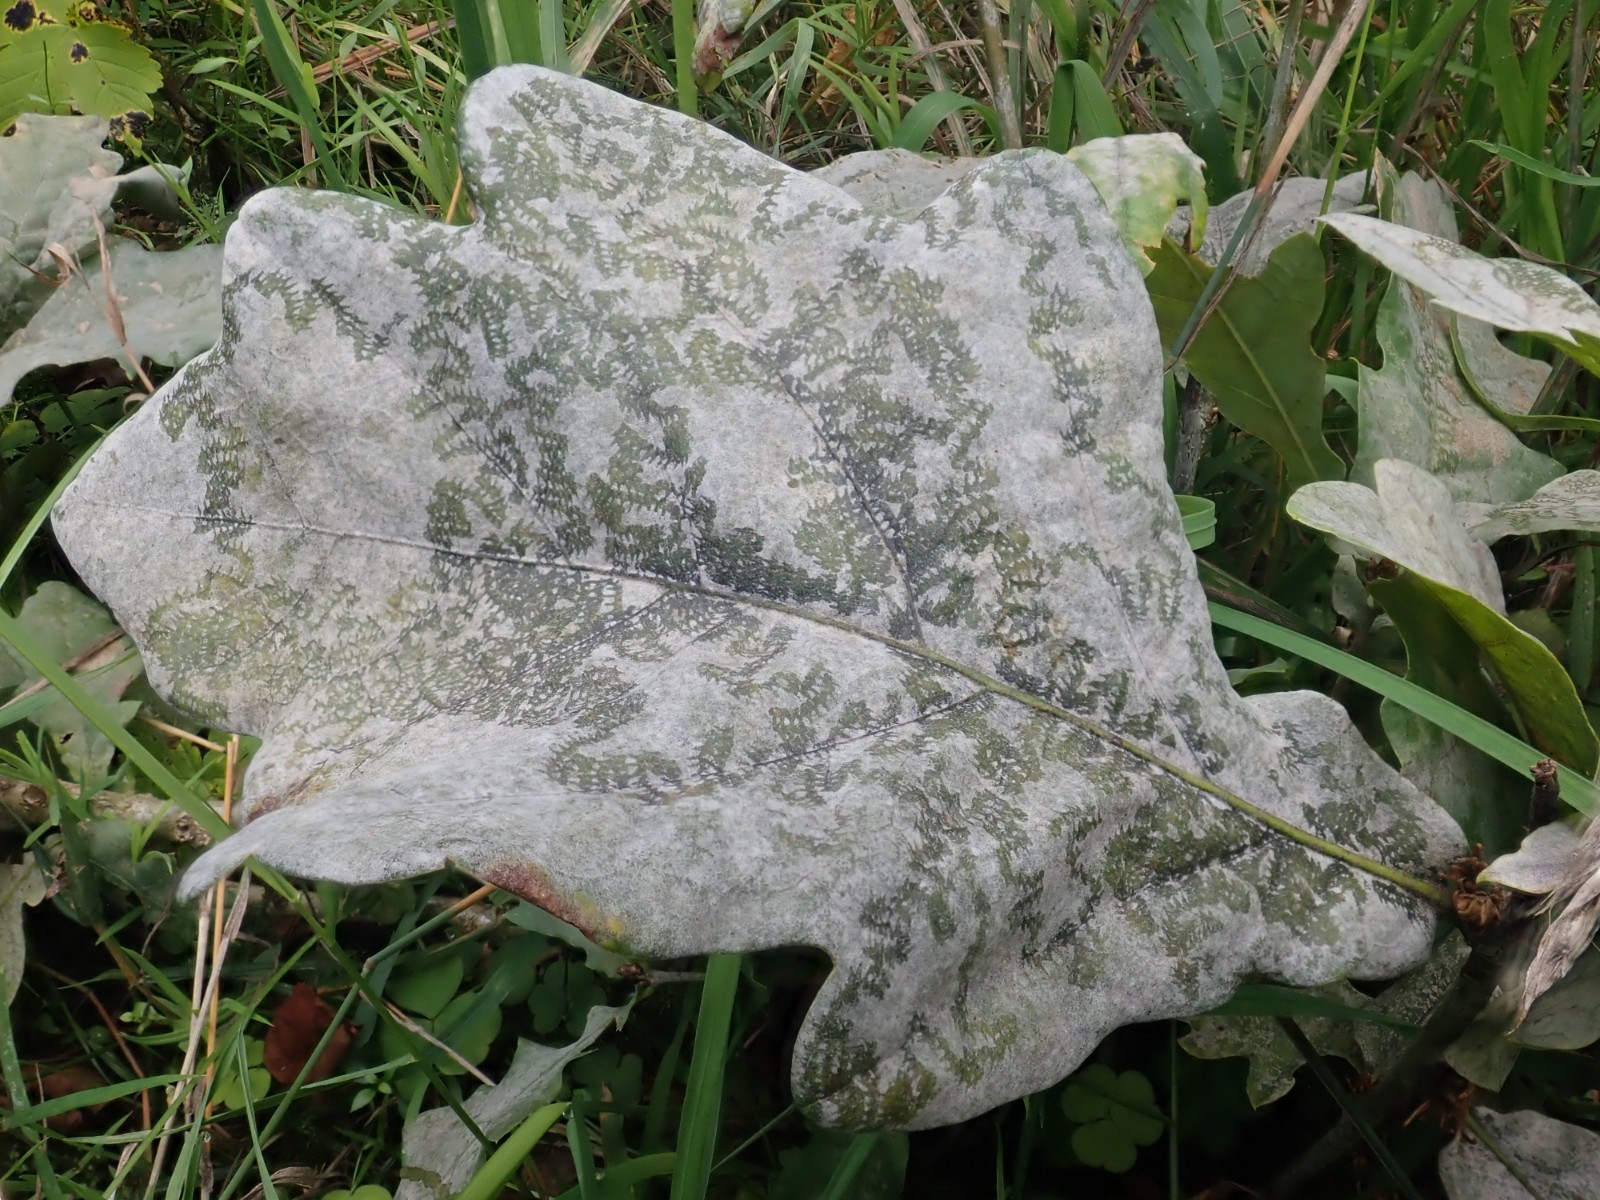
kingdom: Fungi
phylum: Ascomycota
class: Leotiomycetes
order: Helotiales
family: Erysiphaceae
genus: Erysiphe
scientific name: Erysiphe alphitoides
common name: ege-meldug
